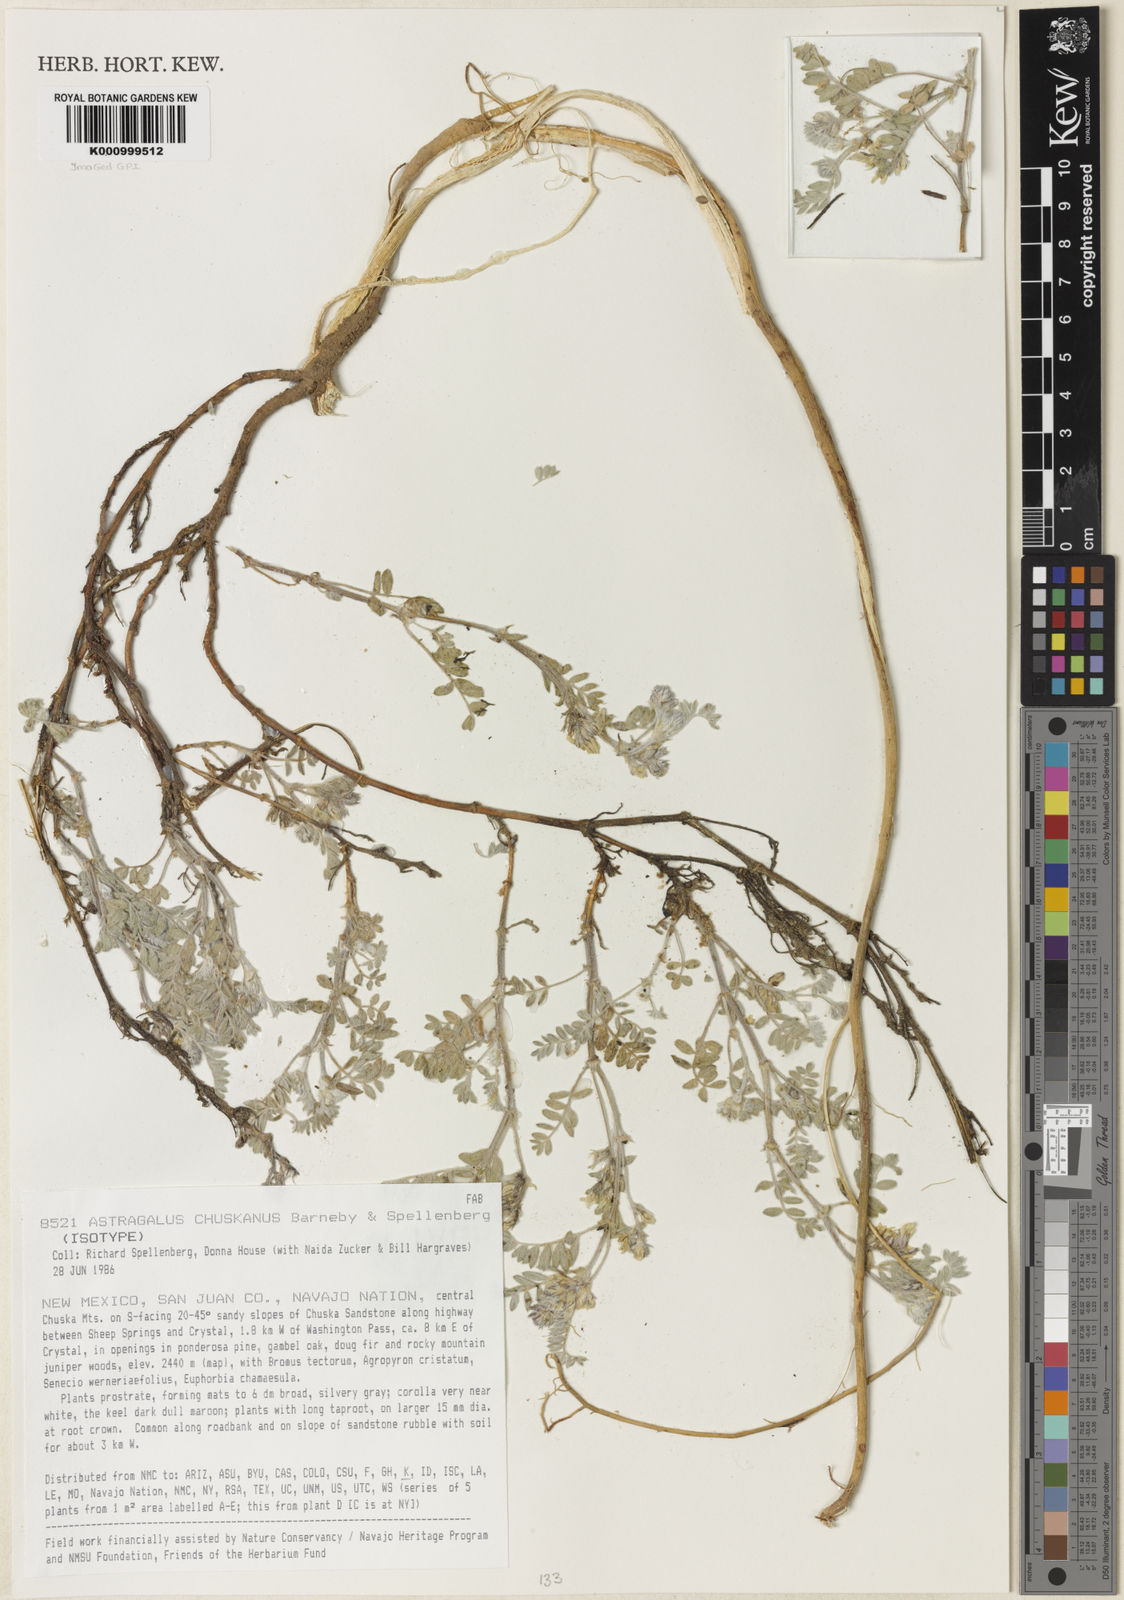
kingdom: Plantae
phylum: Tracheophyta
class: Magnoliopsida
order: Fabales
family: Fabaceae
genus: Astragalus
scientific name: Astragalus chuskanus
